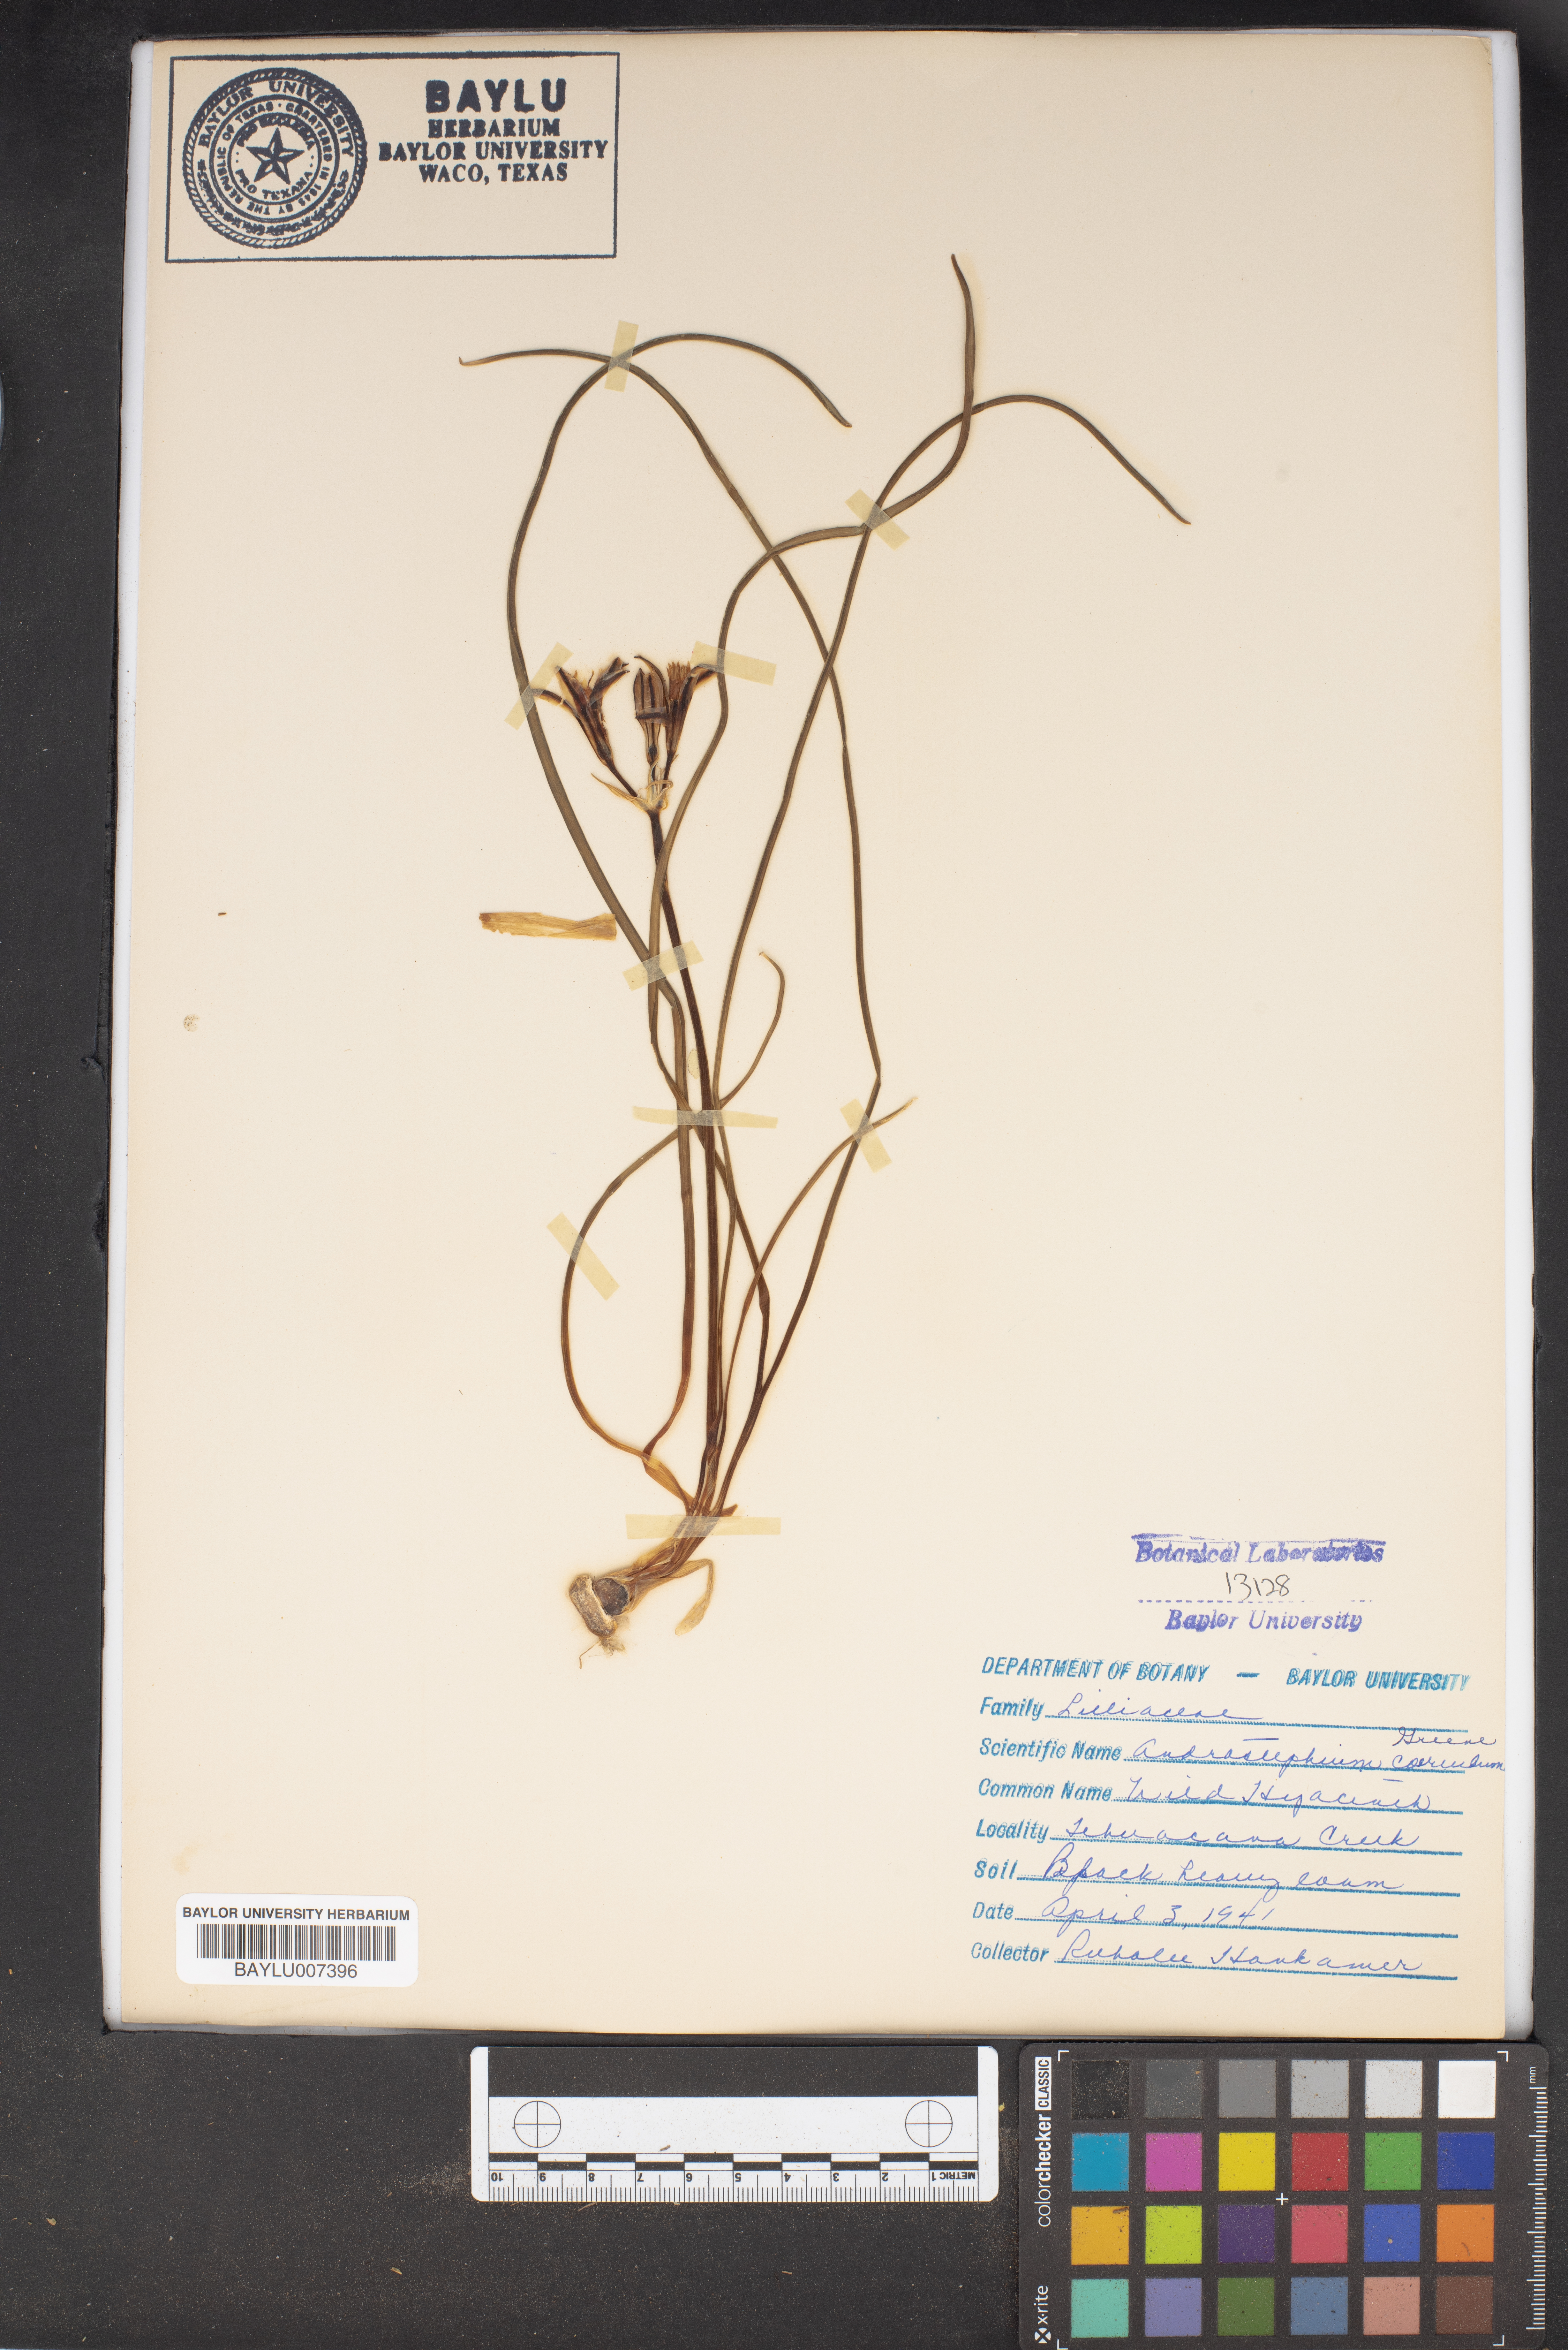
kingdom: Plantae
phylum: Tracheophyta
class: Liliopsida
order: Asparagales
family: Asparagaceae
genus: Androstephium
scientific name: Androstephium coeruleum
